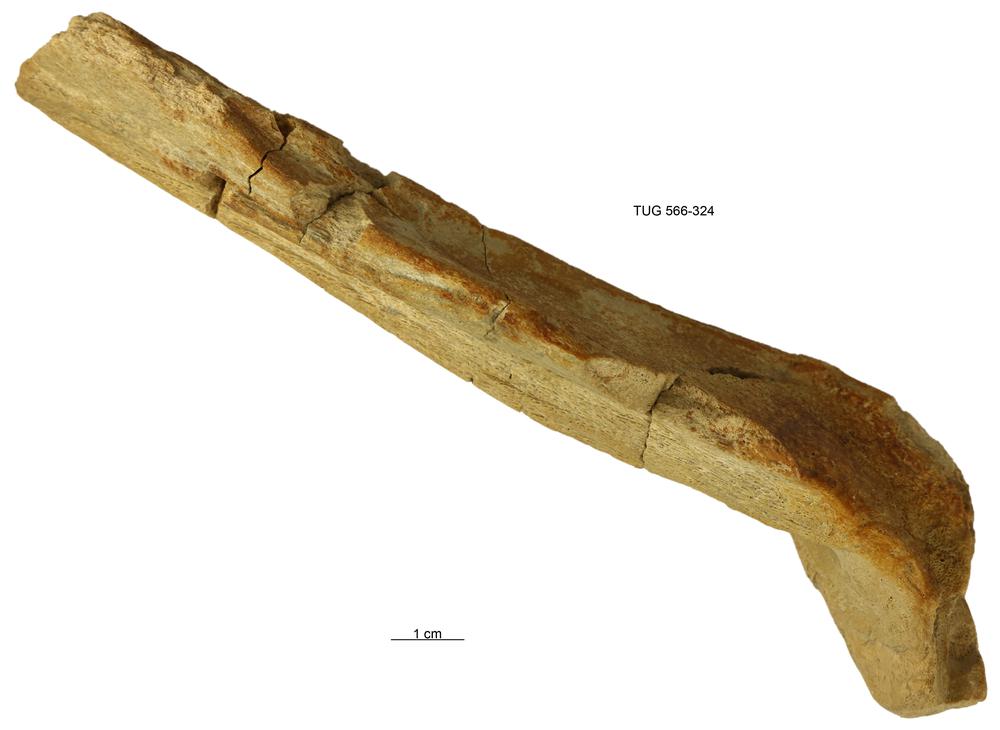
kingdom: Animalia
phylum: Chordata
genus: Homosteus
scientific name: Homosteus latus
